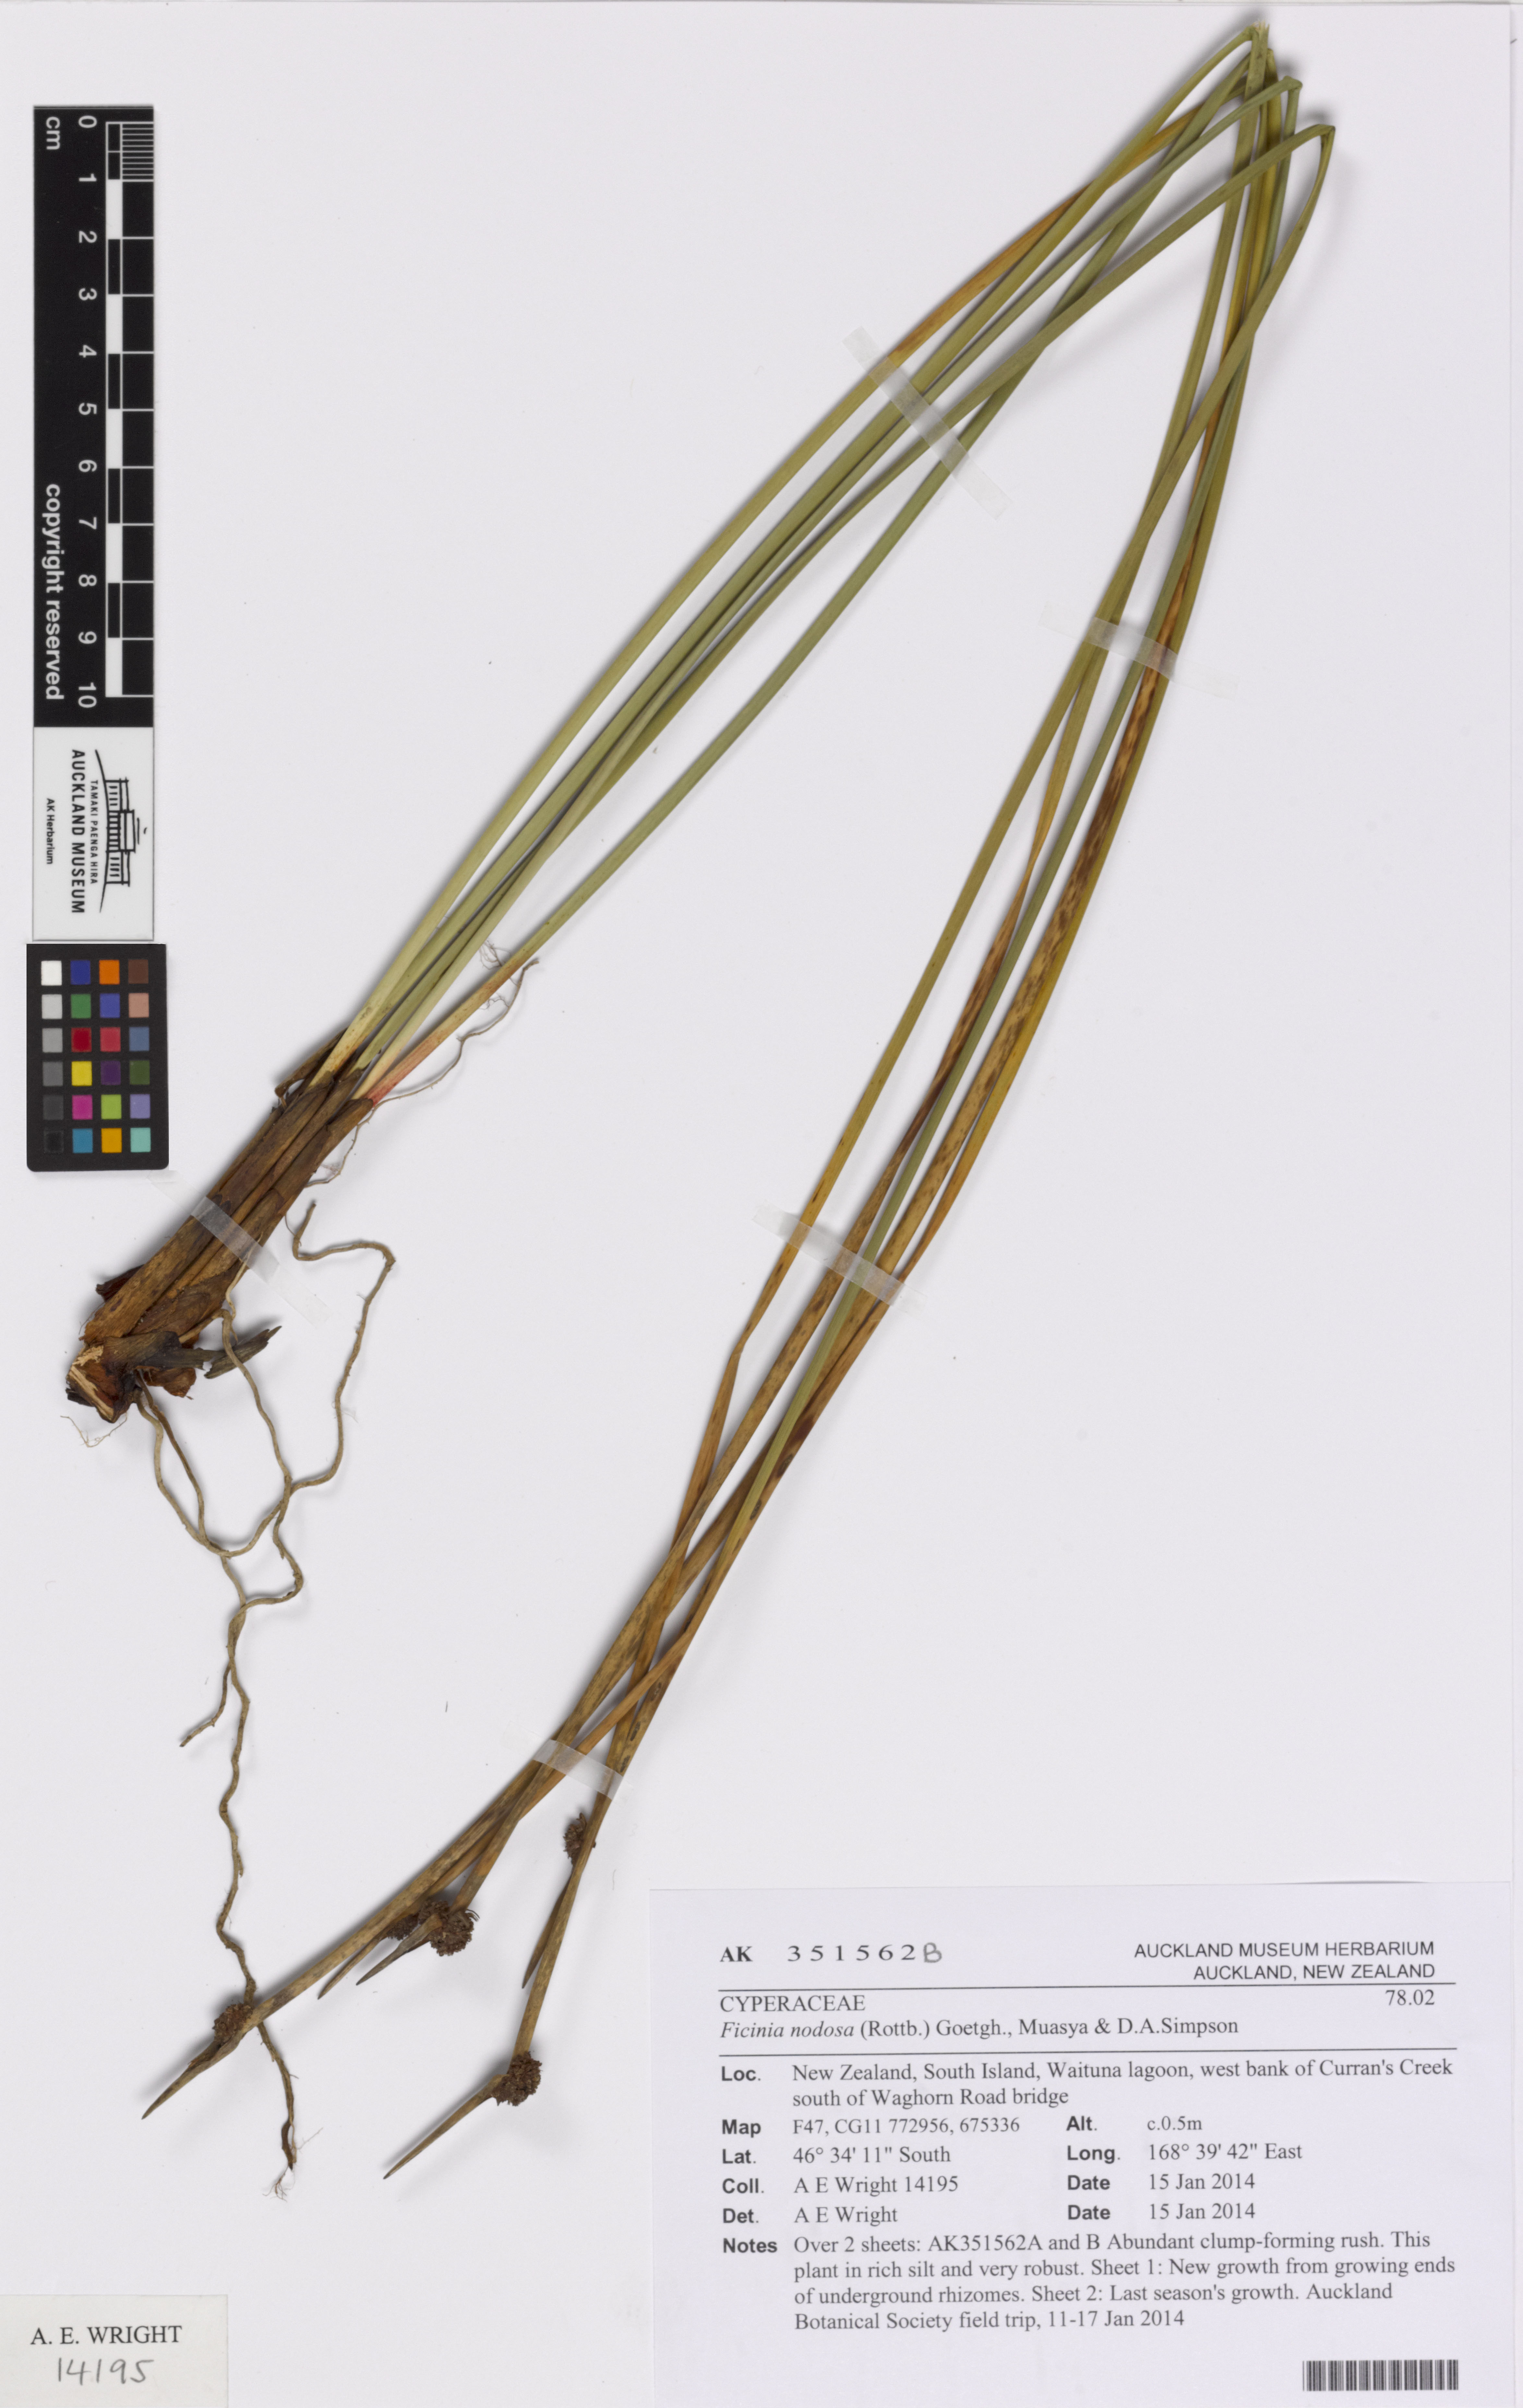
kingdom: Plantae
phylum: Tracheophyta
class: Liliopsida
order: Poales
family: Cyperaceae
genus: Ficinia
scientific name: Ficinia nodosa
